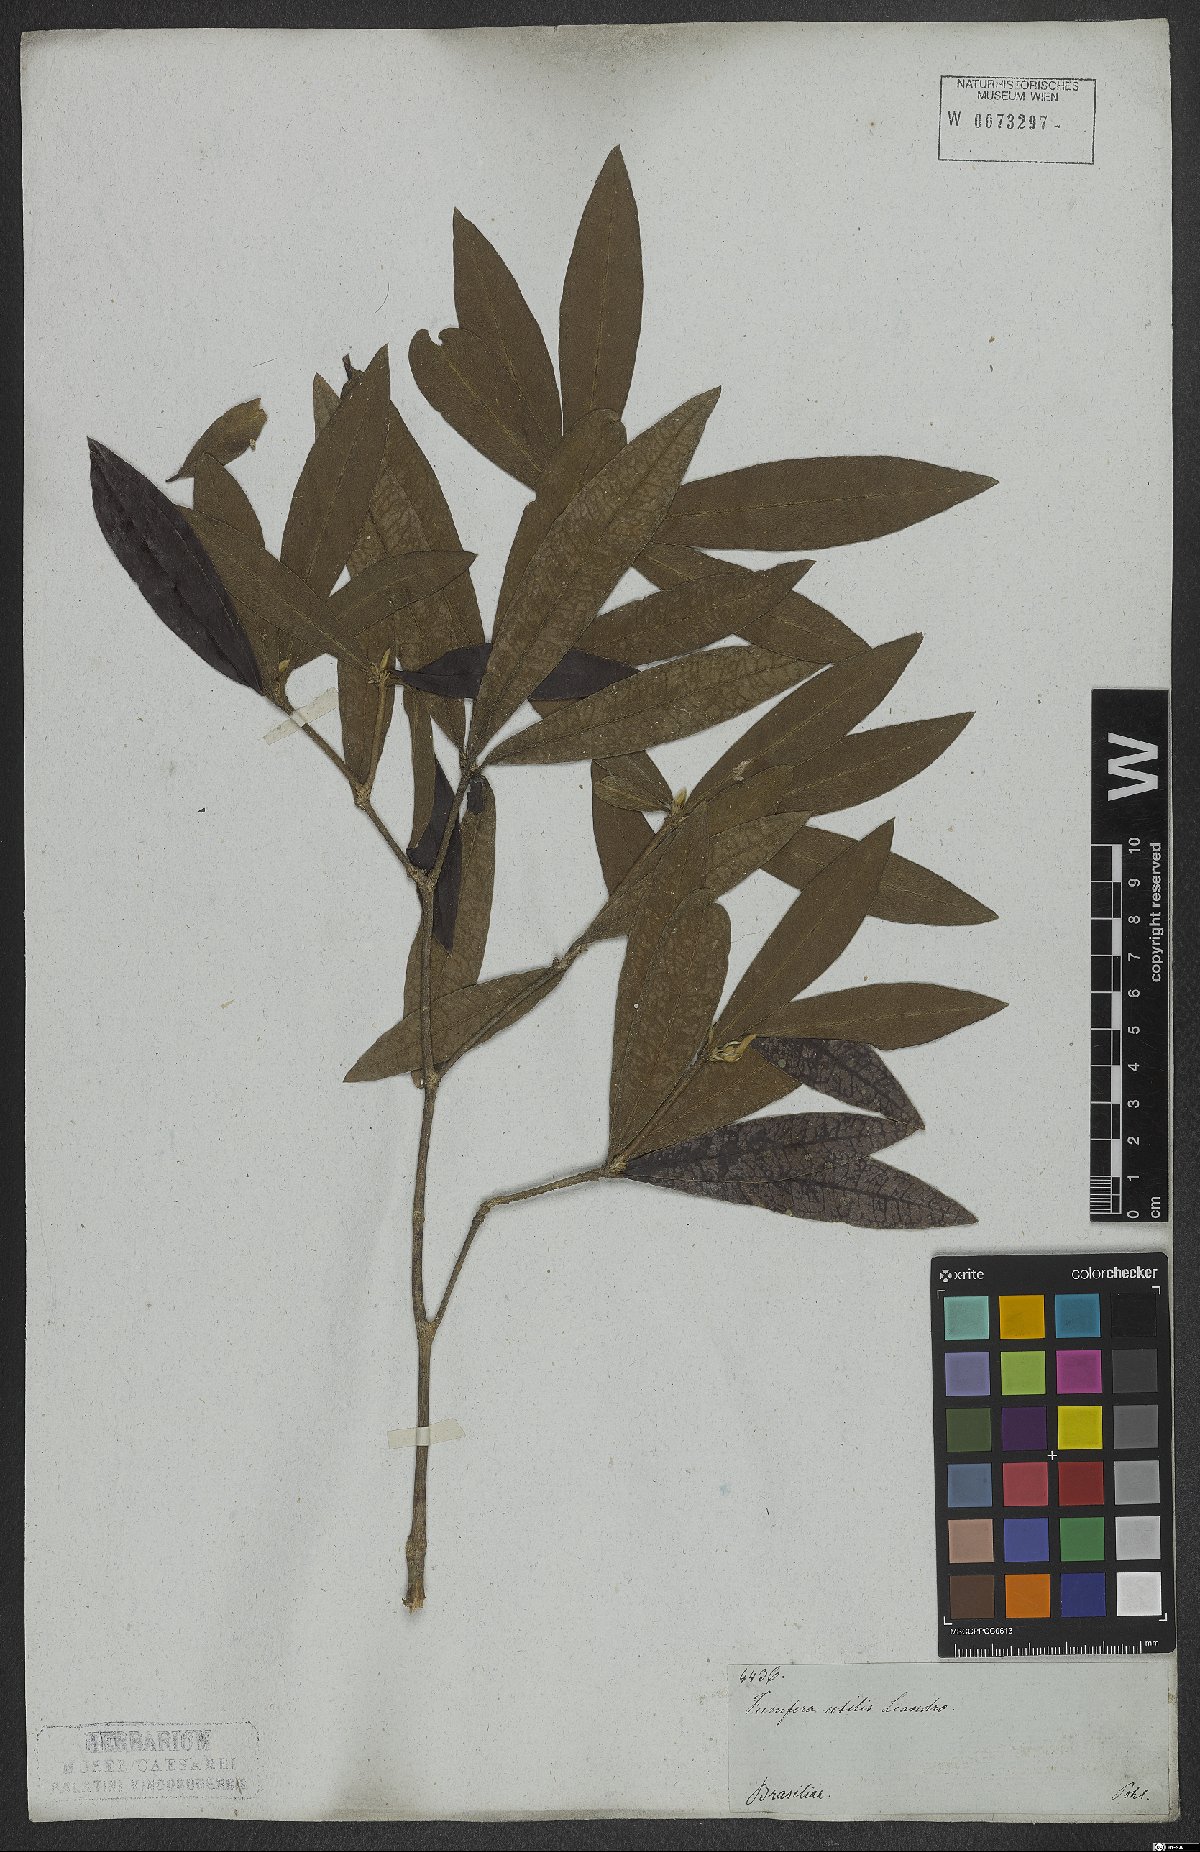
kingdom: Plantae
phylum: Tracheophyta
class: Magnoliopsida
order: Malvales
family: Thymelaeaceae
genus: Funifera
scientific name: Funifera brasiliensis
